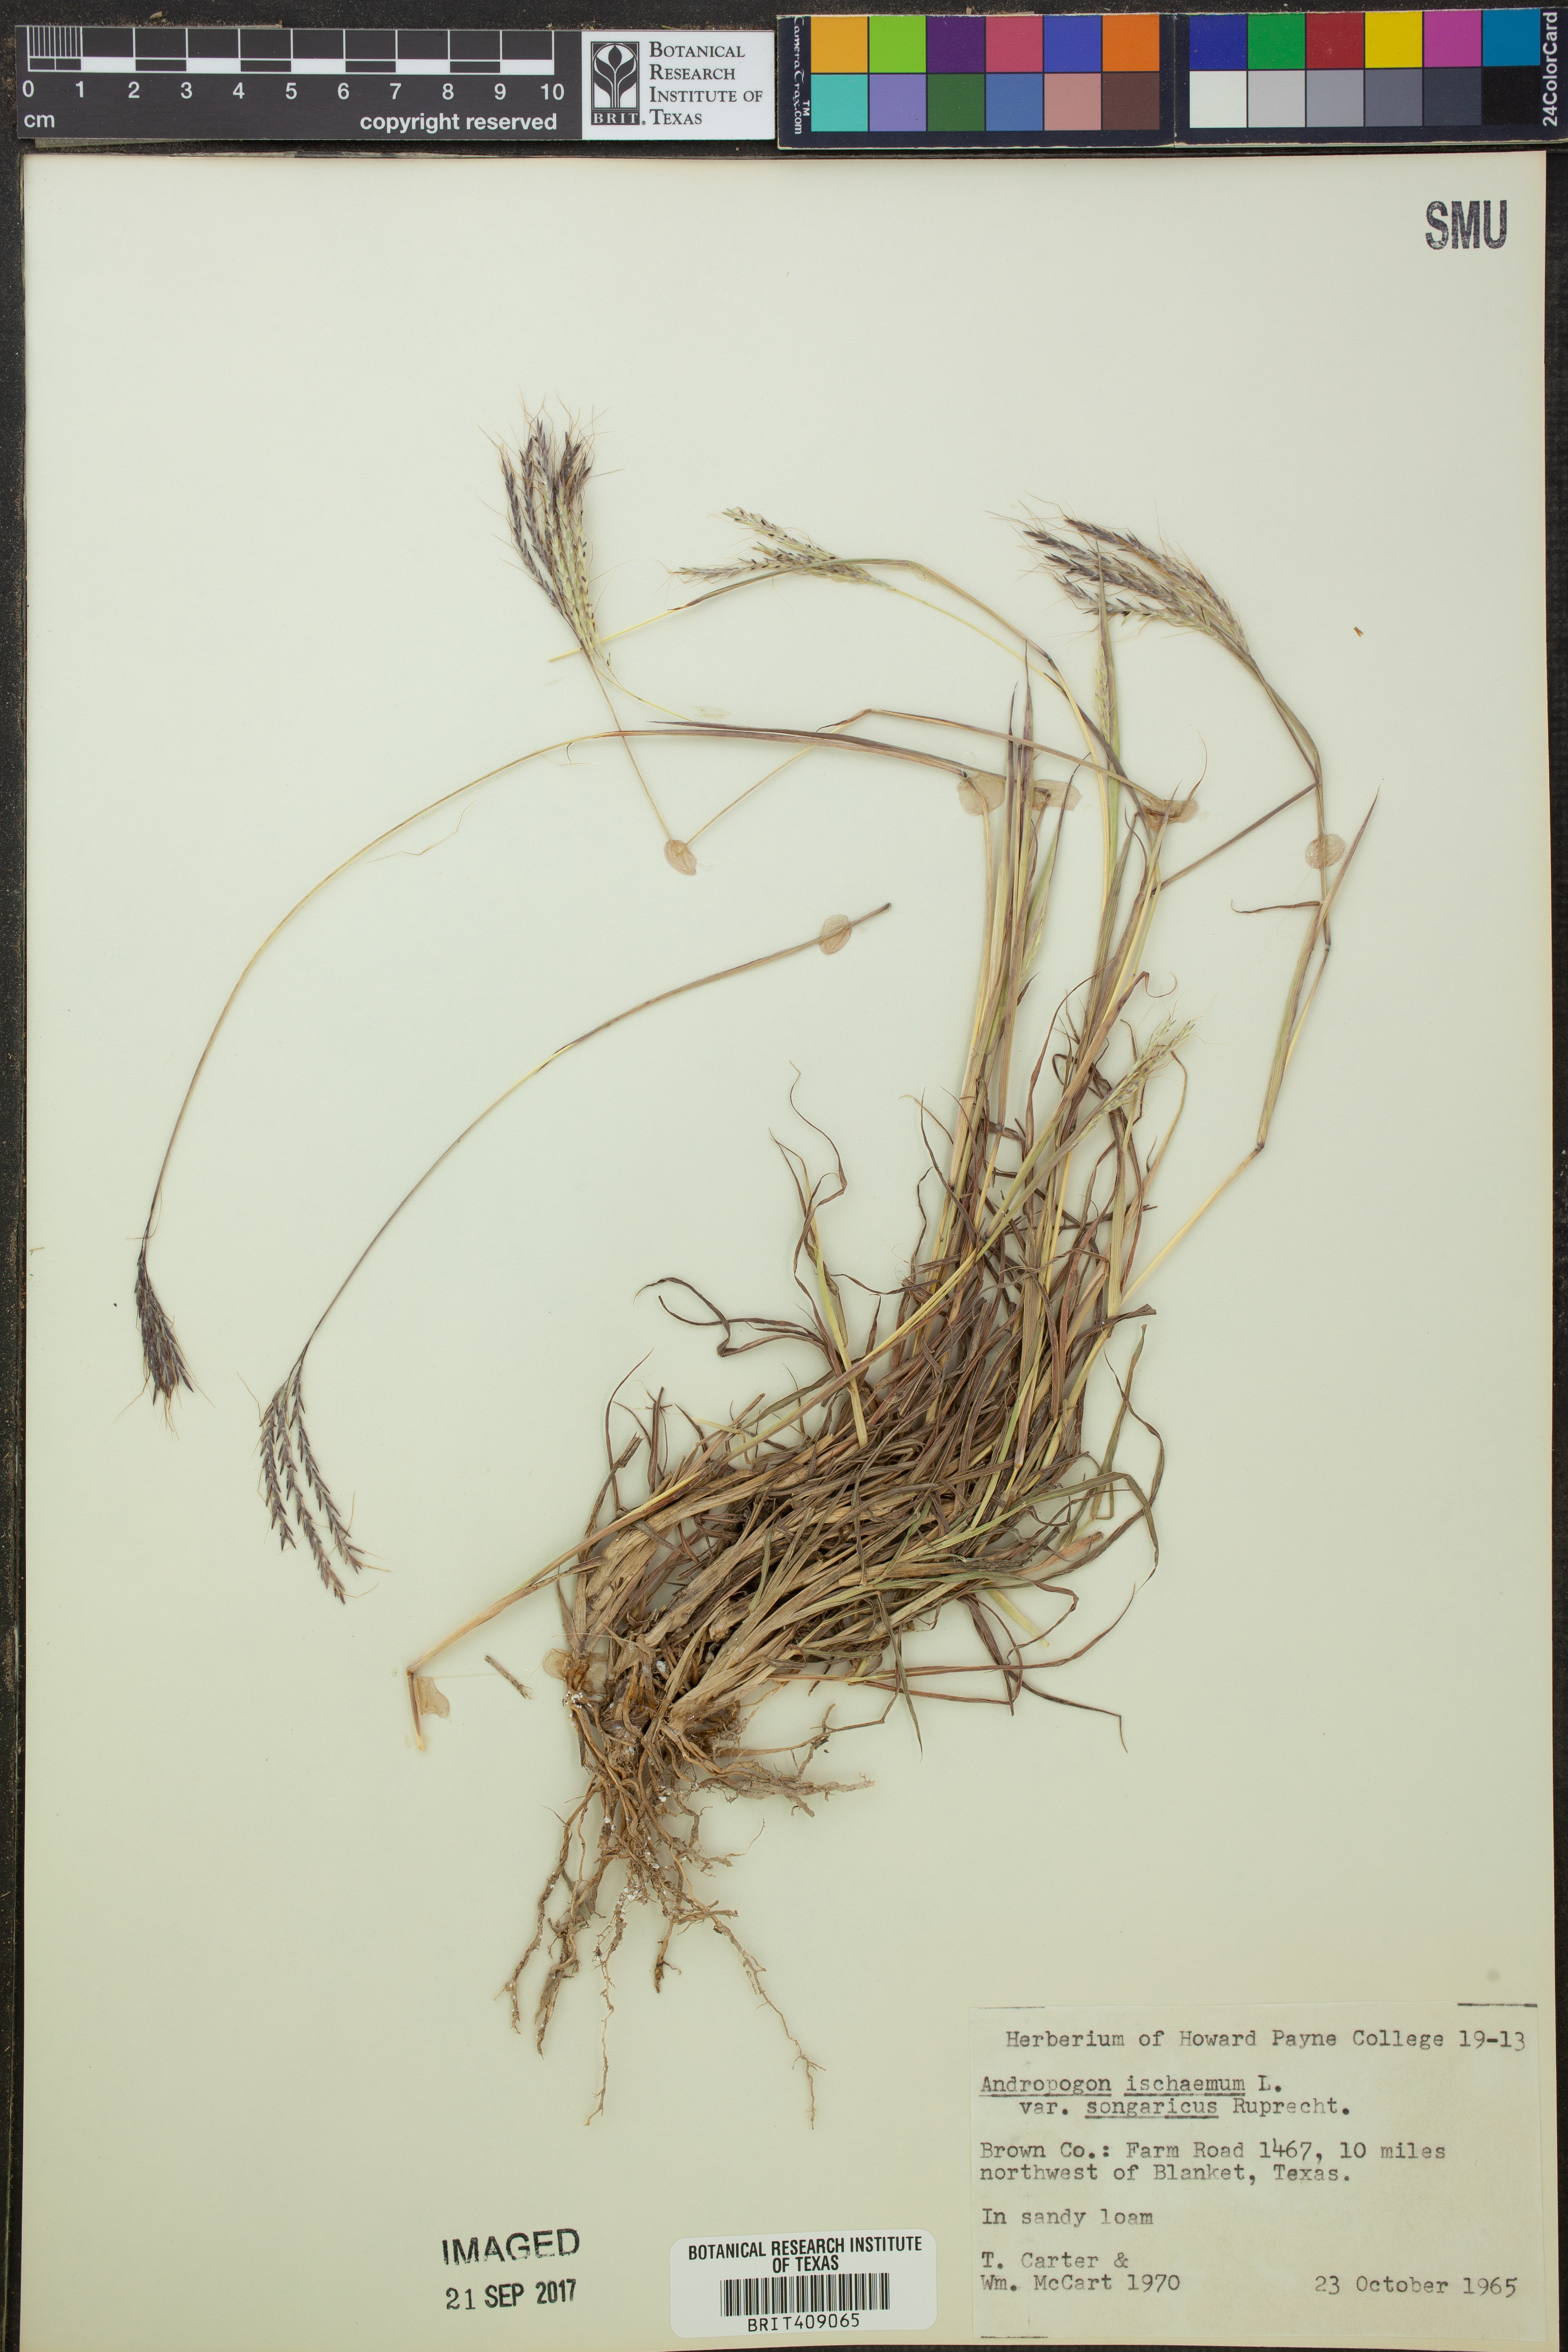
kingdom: Plantae
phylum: Tracheophyta
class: Liliopsida
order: Poales
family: Poaceae
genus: Bothriochloa
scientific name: Bothriochloa ischaemum
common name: Yellow bluestem
